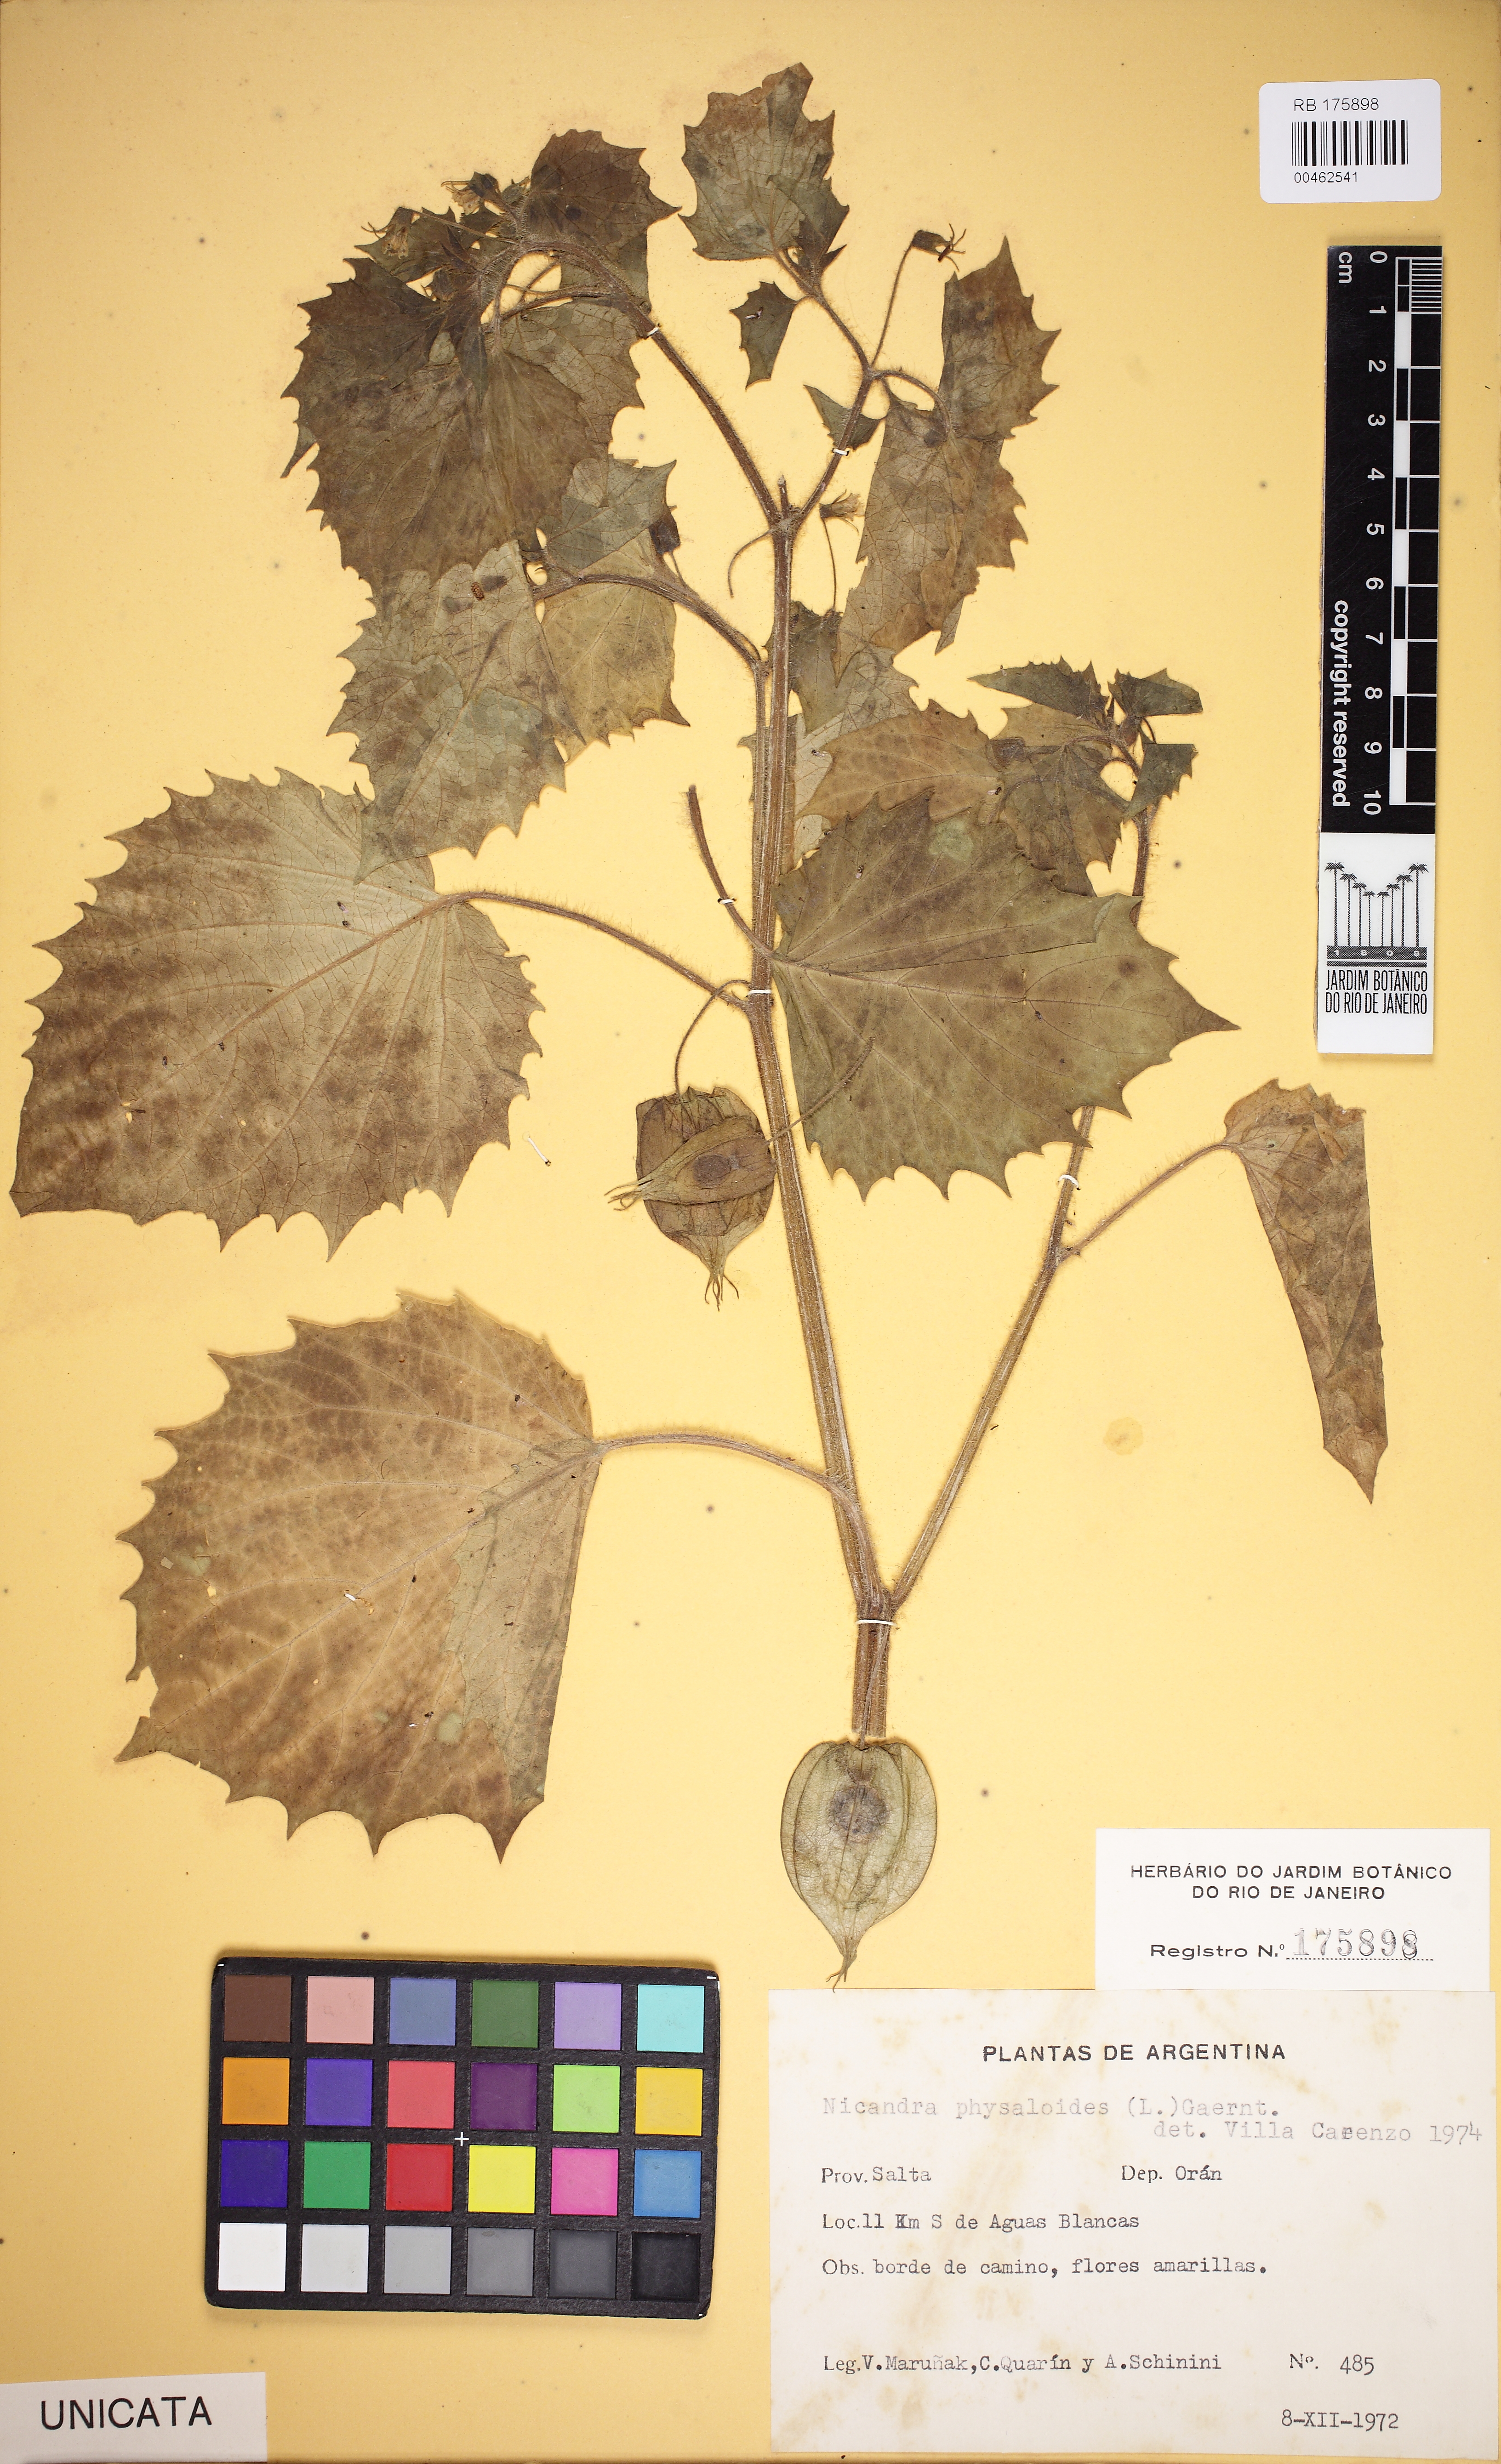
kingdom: Plantae
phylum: Tracheophyta
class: Magnoliopsida
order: Solanales
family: Solanaceae
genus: Nicandra
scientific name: Nicandra physalodes
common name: Apple-of-peru
